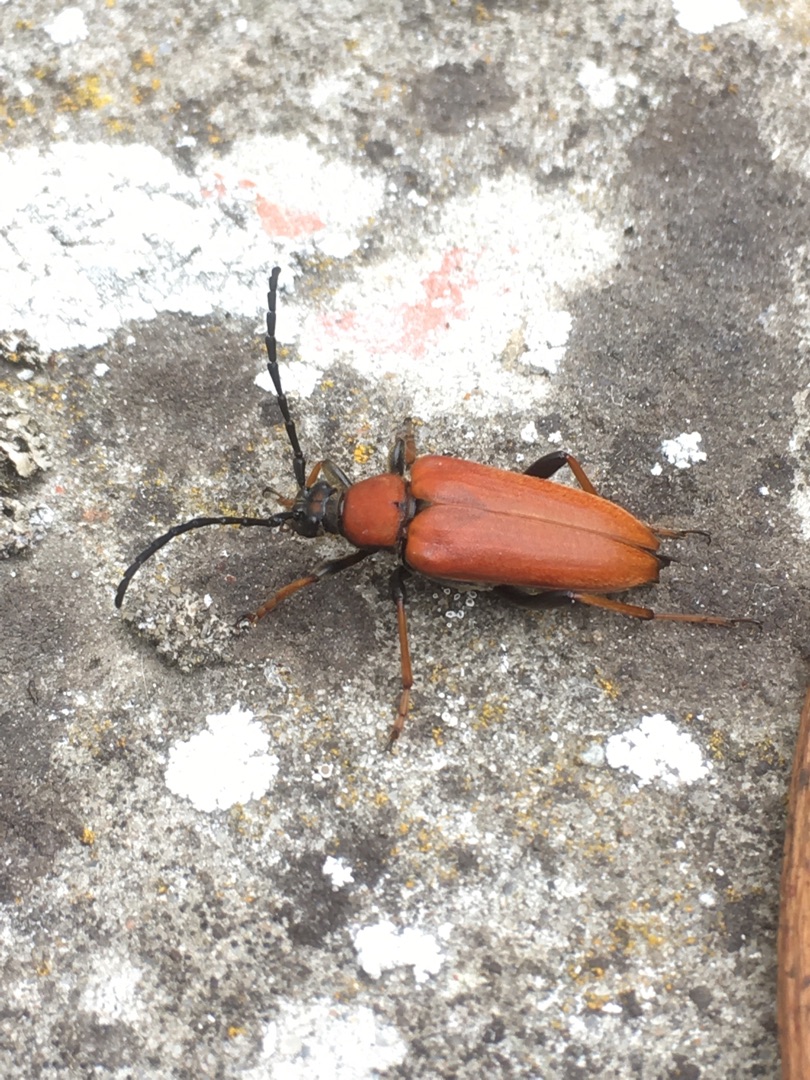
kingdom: Animalia
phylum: Arthropoda
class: Insecta
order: Coleoptera
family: Cerambycidae
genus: Stictoleptura
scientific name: Stictoleptura rubra
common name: Rød blomsterbuk
